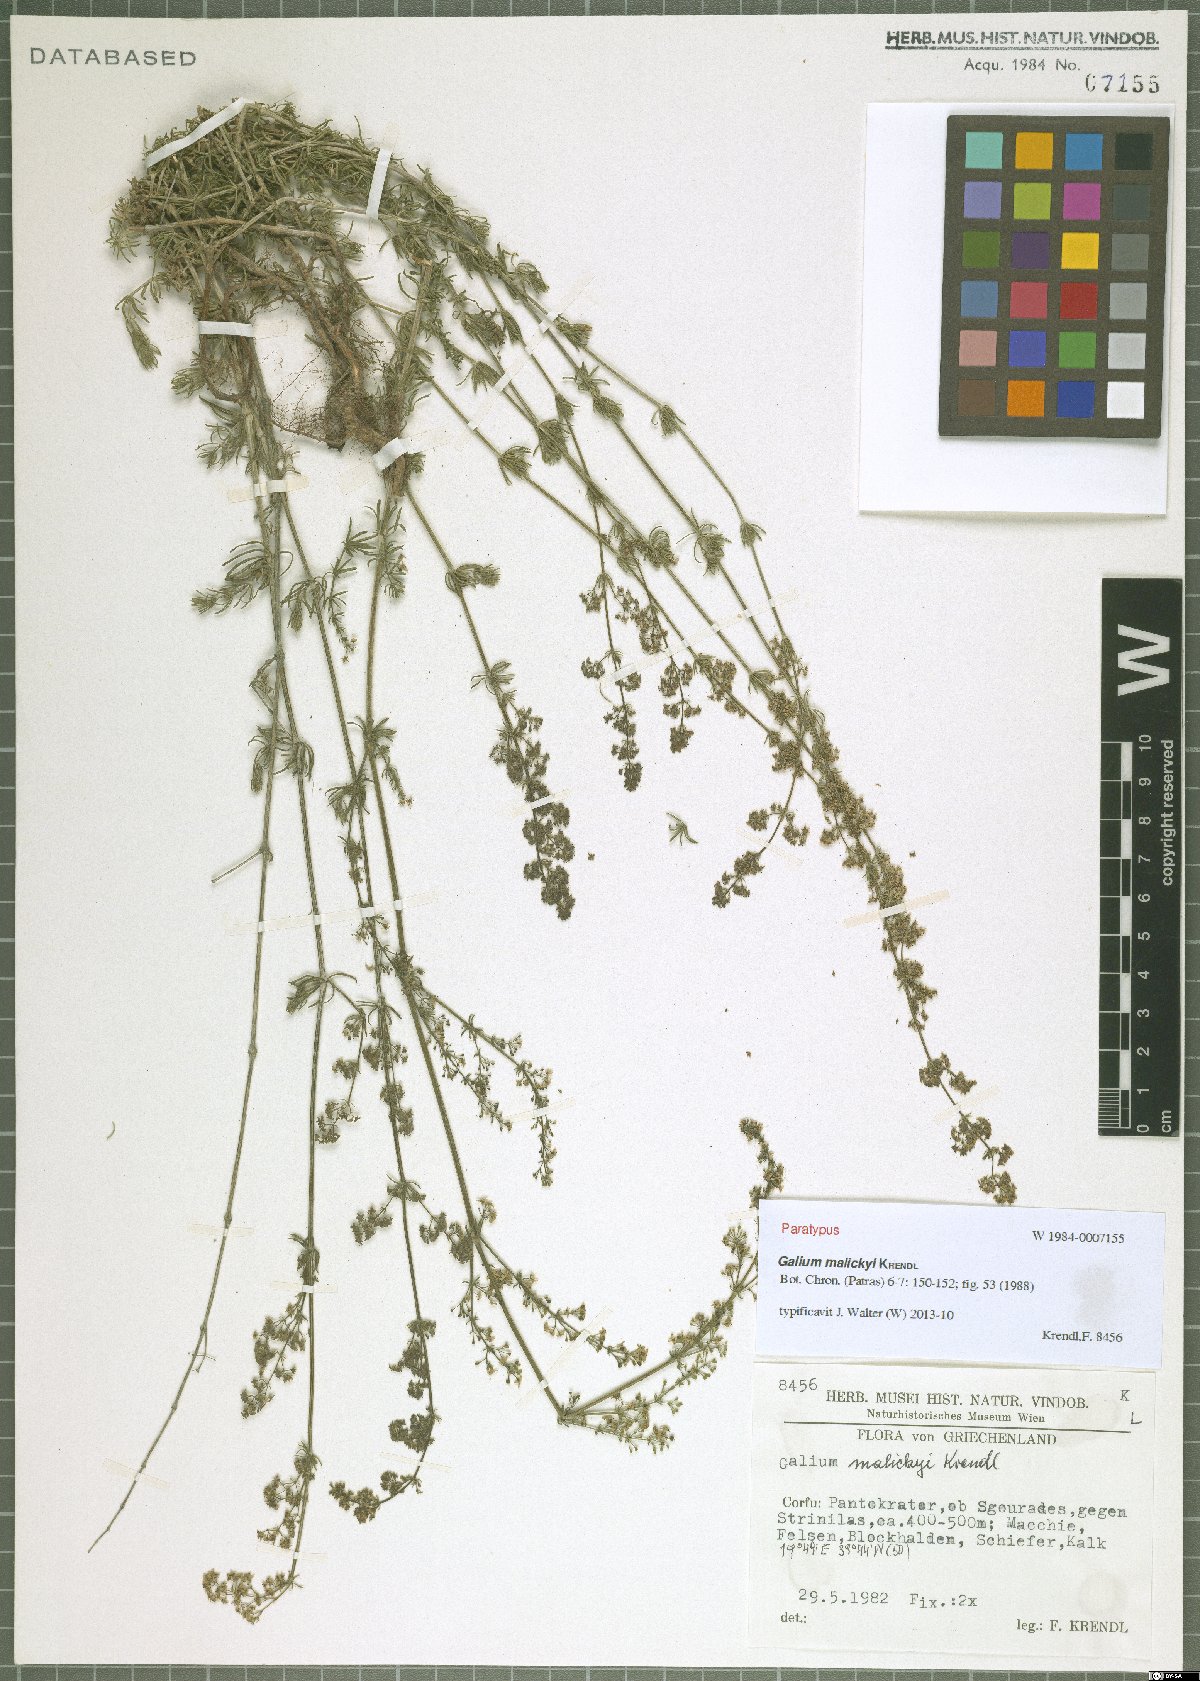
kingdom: Plantae
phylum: Tracheophyta
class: Magnoliopsida
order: Gentianales
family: Rubiaceae
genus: Galium
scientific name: Galium malickyi
